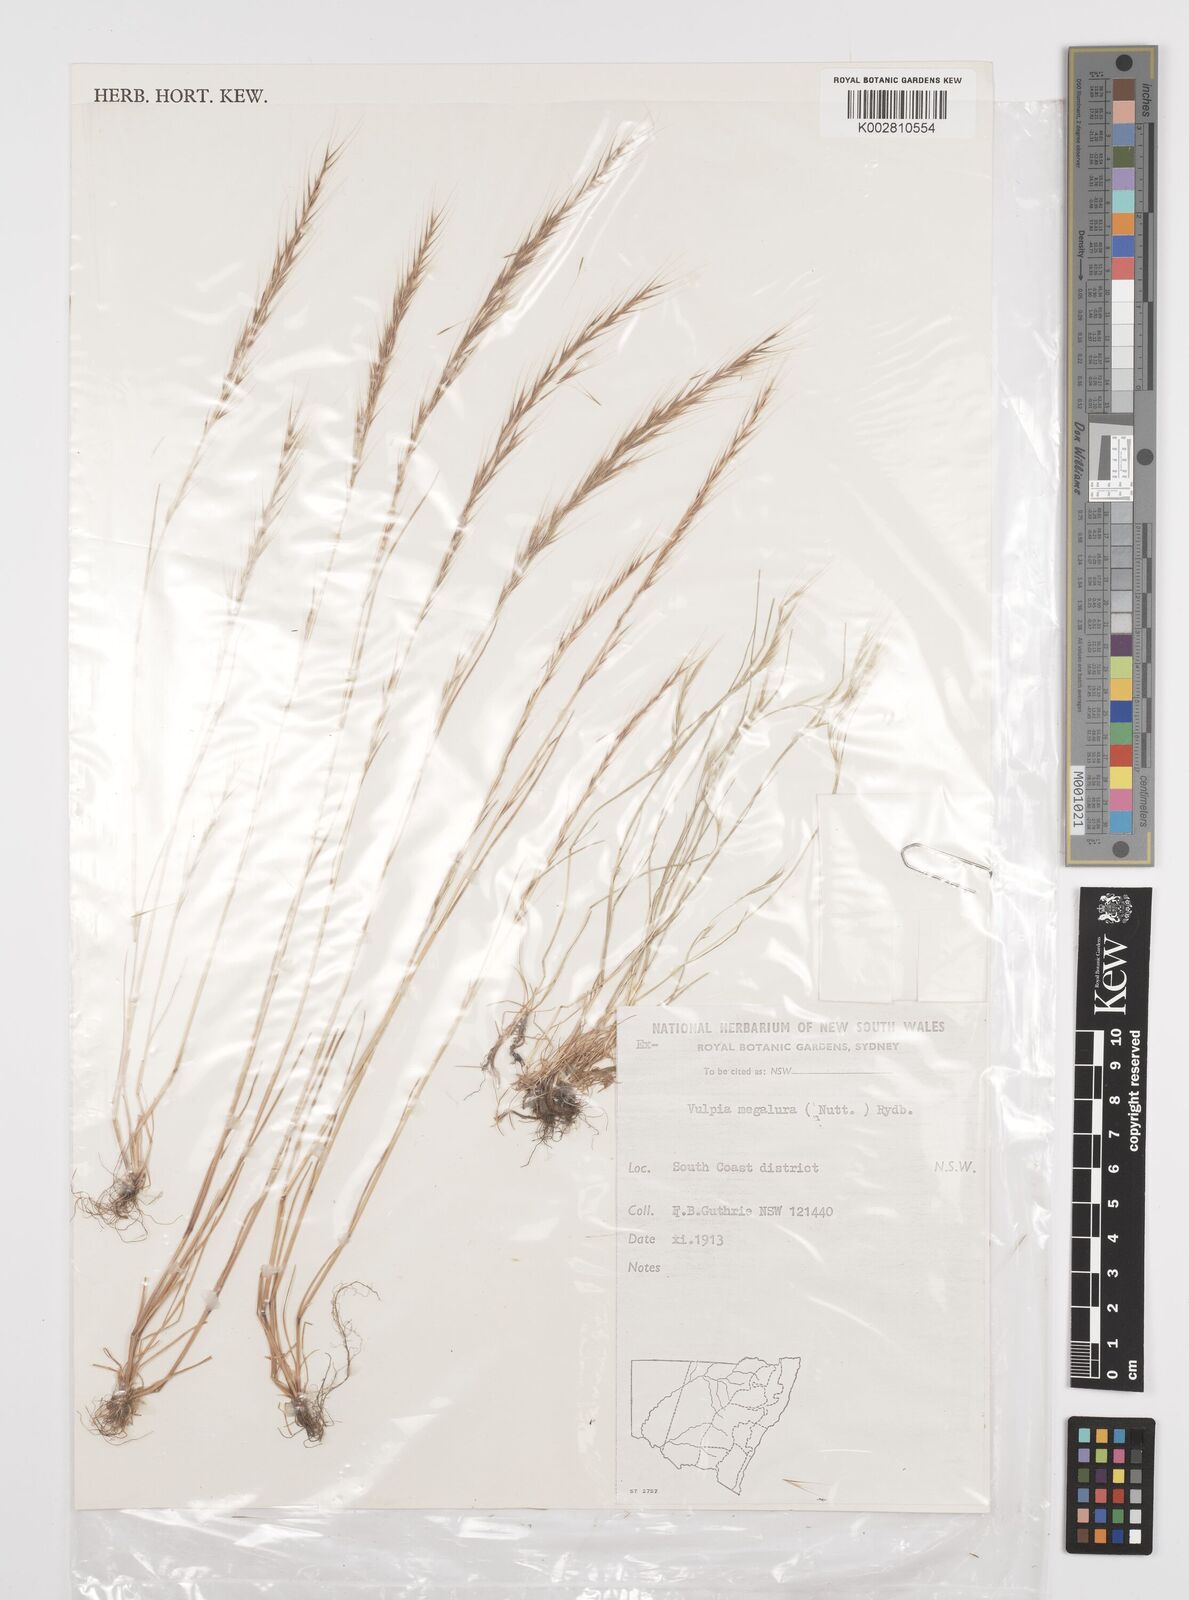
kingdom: Plantae
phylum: Tracheophyta
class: Liliopsida
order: Poales
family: Poaceae
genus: Festuca
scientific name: Festuca myuros
